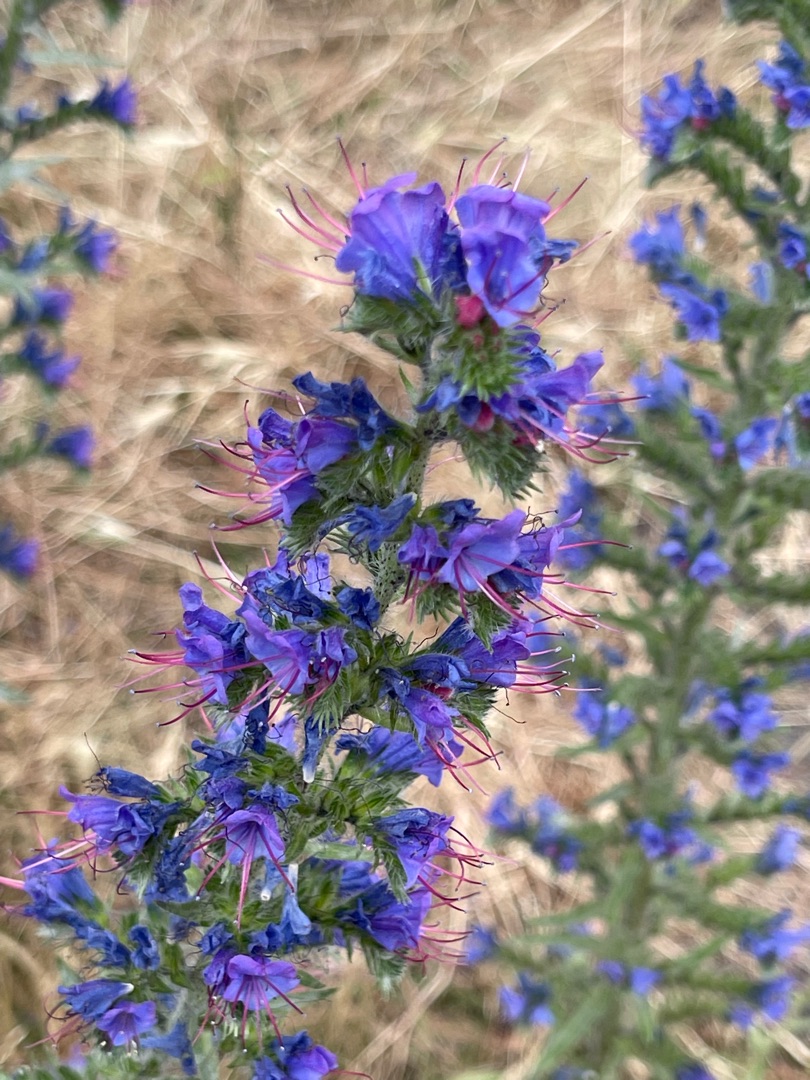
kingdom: Plantae
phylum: Tracheophyta
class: Magnoliopsida
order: Boraginales
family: Boraginaceae
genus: Echium
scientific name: Echium vulgare
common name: Slangehoved
